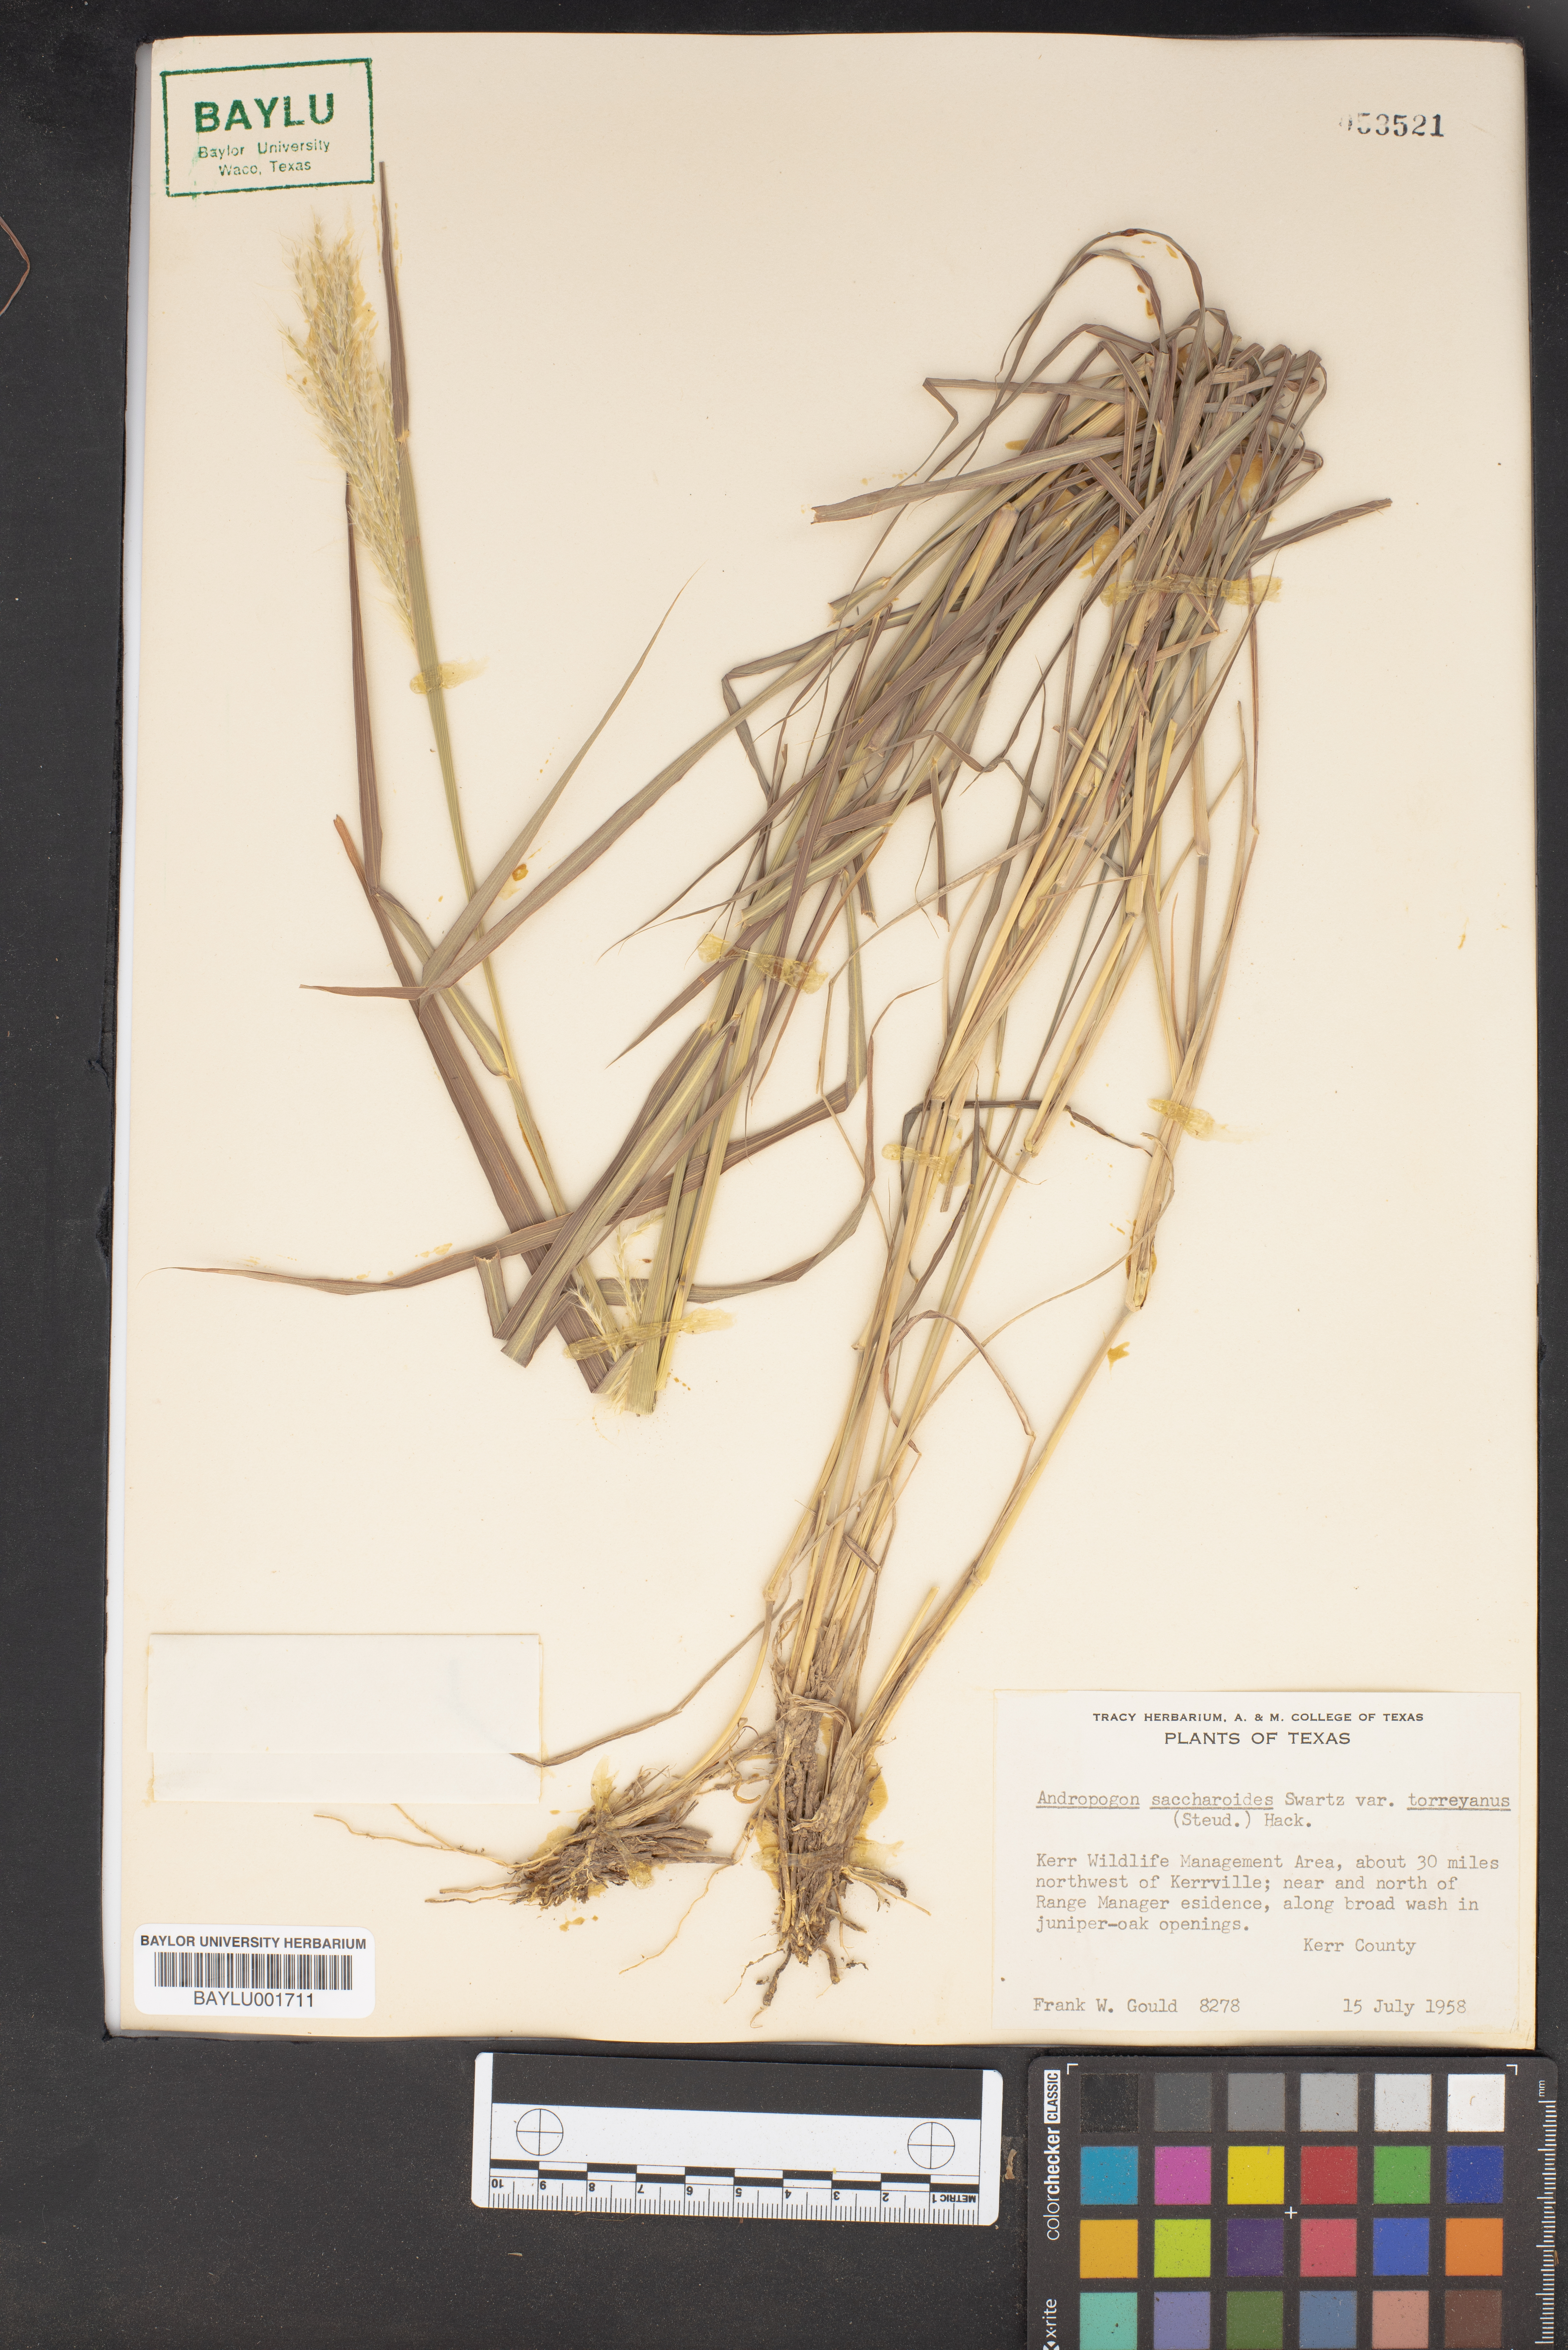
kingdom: Plantae
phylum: Tracheophyta
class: Liliopsida
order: Poales
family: Poaceae
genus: Bothriochloa
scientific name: Bothriochloa torreyana
